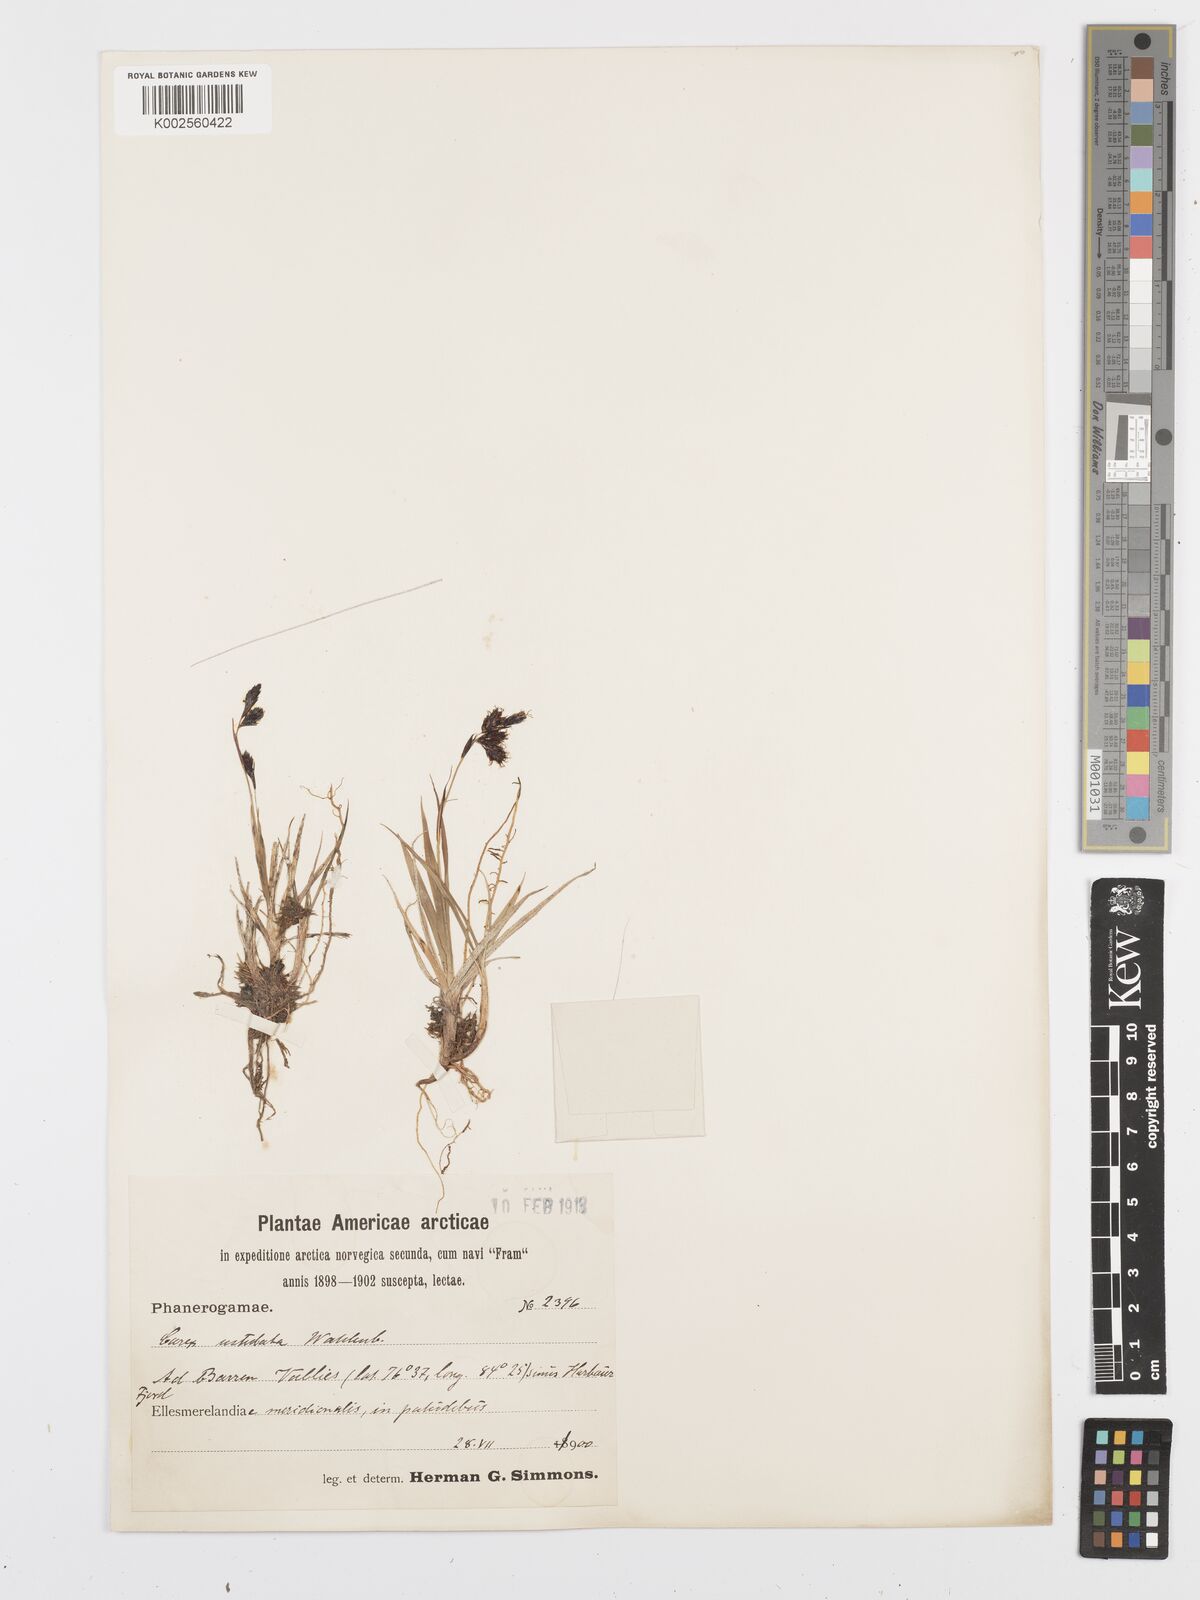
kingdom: Plantae
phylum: Tracheophyta
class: Liliopsida
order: Poales
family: Cyperaceae
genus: Carex
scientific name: Carex atrofusca
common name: Scorched alpine-sedge
